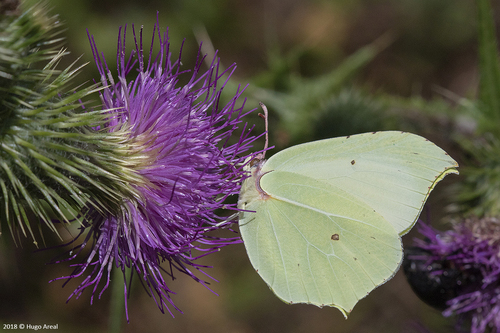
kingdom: Animalia
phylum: Arthropoda
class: Insecta
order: Lepidoptera
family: Pieridae
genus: Gonepteryx
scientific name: Gonepteryx rhamni
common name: Brimstone
